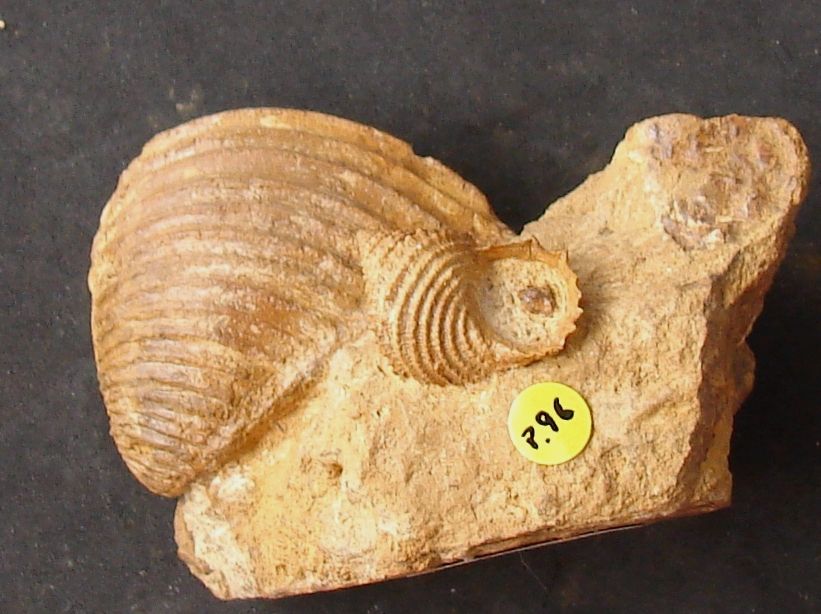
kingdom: Animalia
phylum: Mollusca
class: Gastropoda
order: Seguenziida
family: Eucycloscalidae
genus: Ambercyclus
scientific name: Ambercyclus Turbo ornatus
